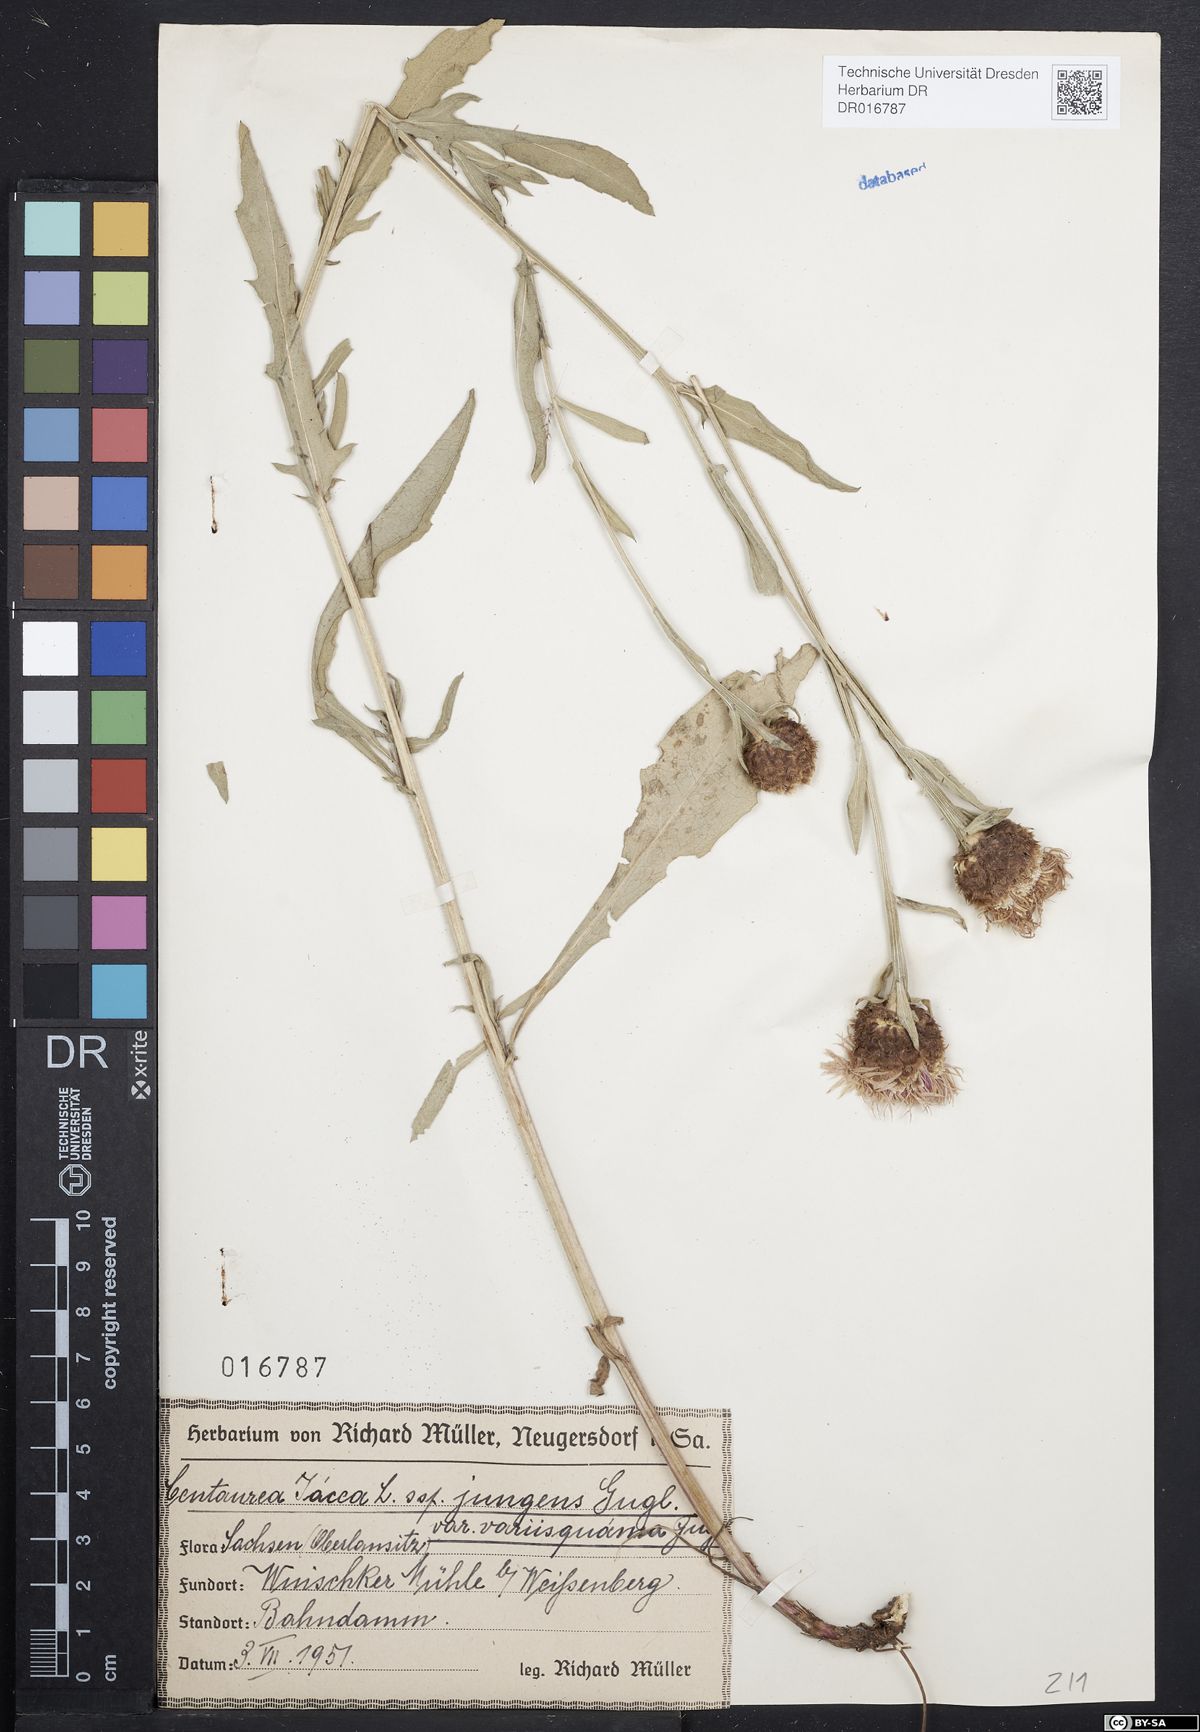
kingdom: Plantae
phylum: Tracheophyta
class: Magnoliopsida
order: Asterales
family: Asteraceae
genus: Centaurea
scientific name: Centaurea jacea
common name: Brown knapweed
